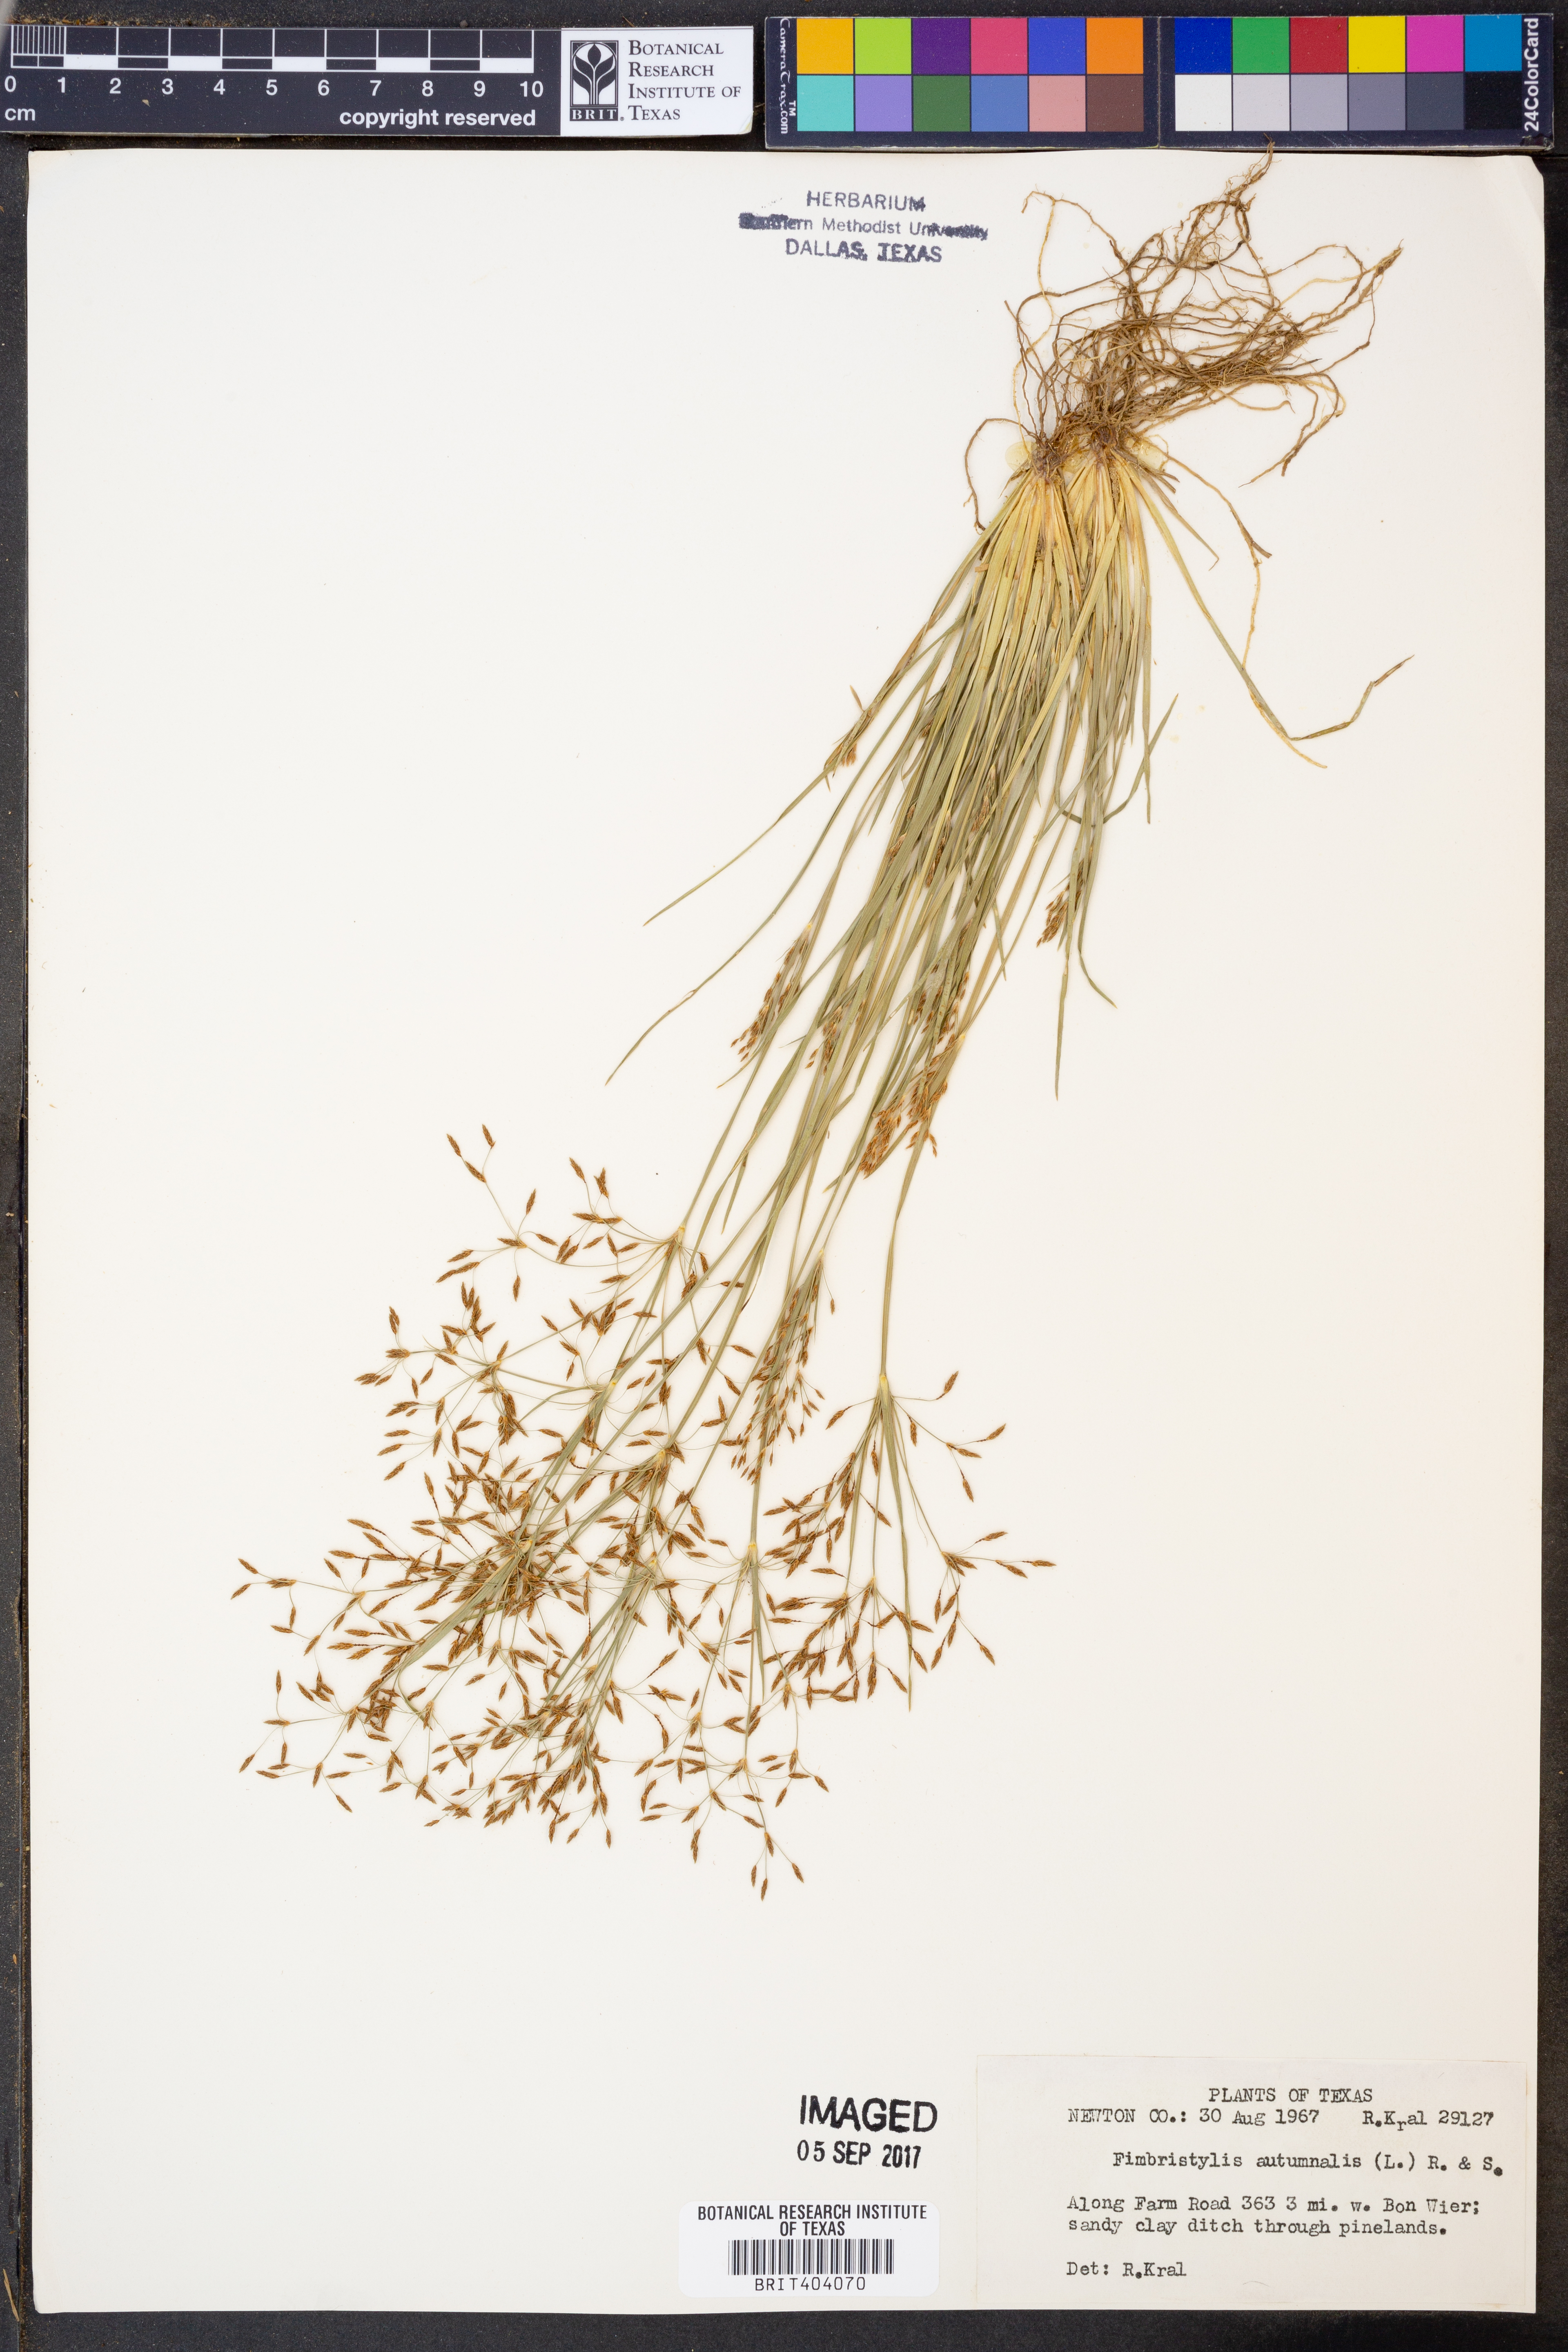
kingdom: Plantae
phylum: Tracheophyta
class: Liliopsida
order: Poales
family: Cyperaceae
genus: Fimbristylis
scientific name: Fimbristylis autumnalis
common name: Slender fimbristylis
